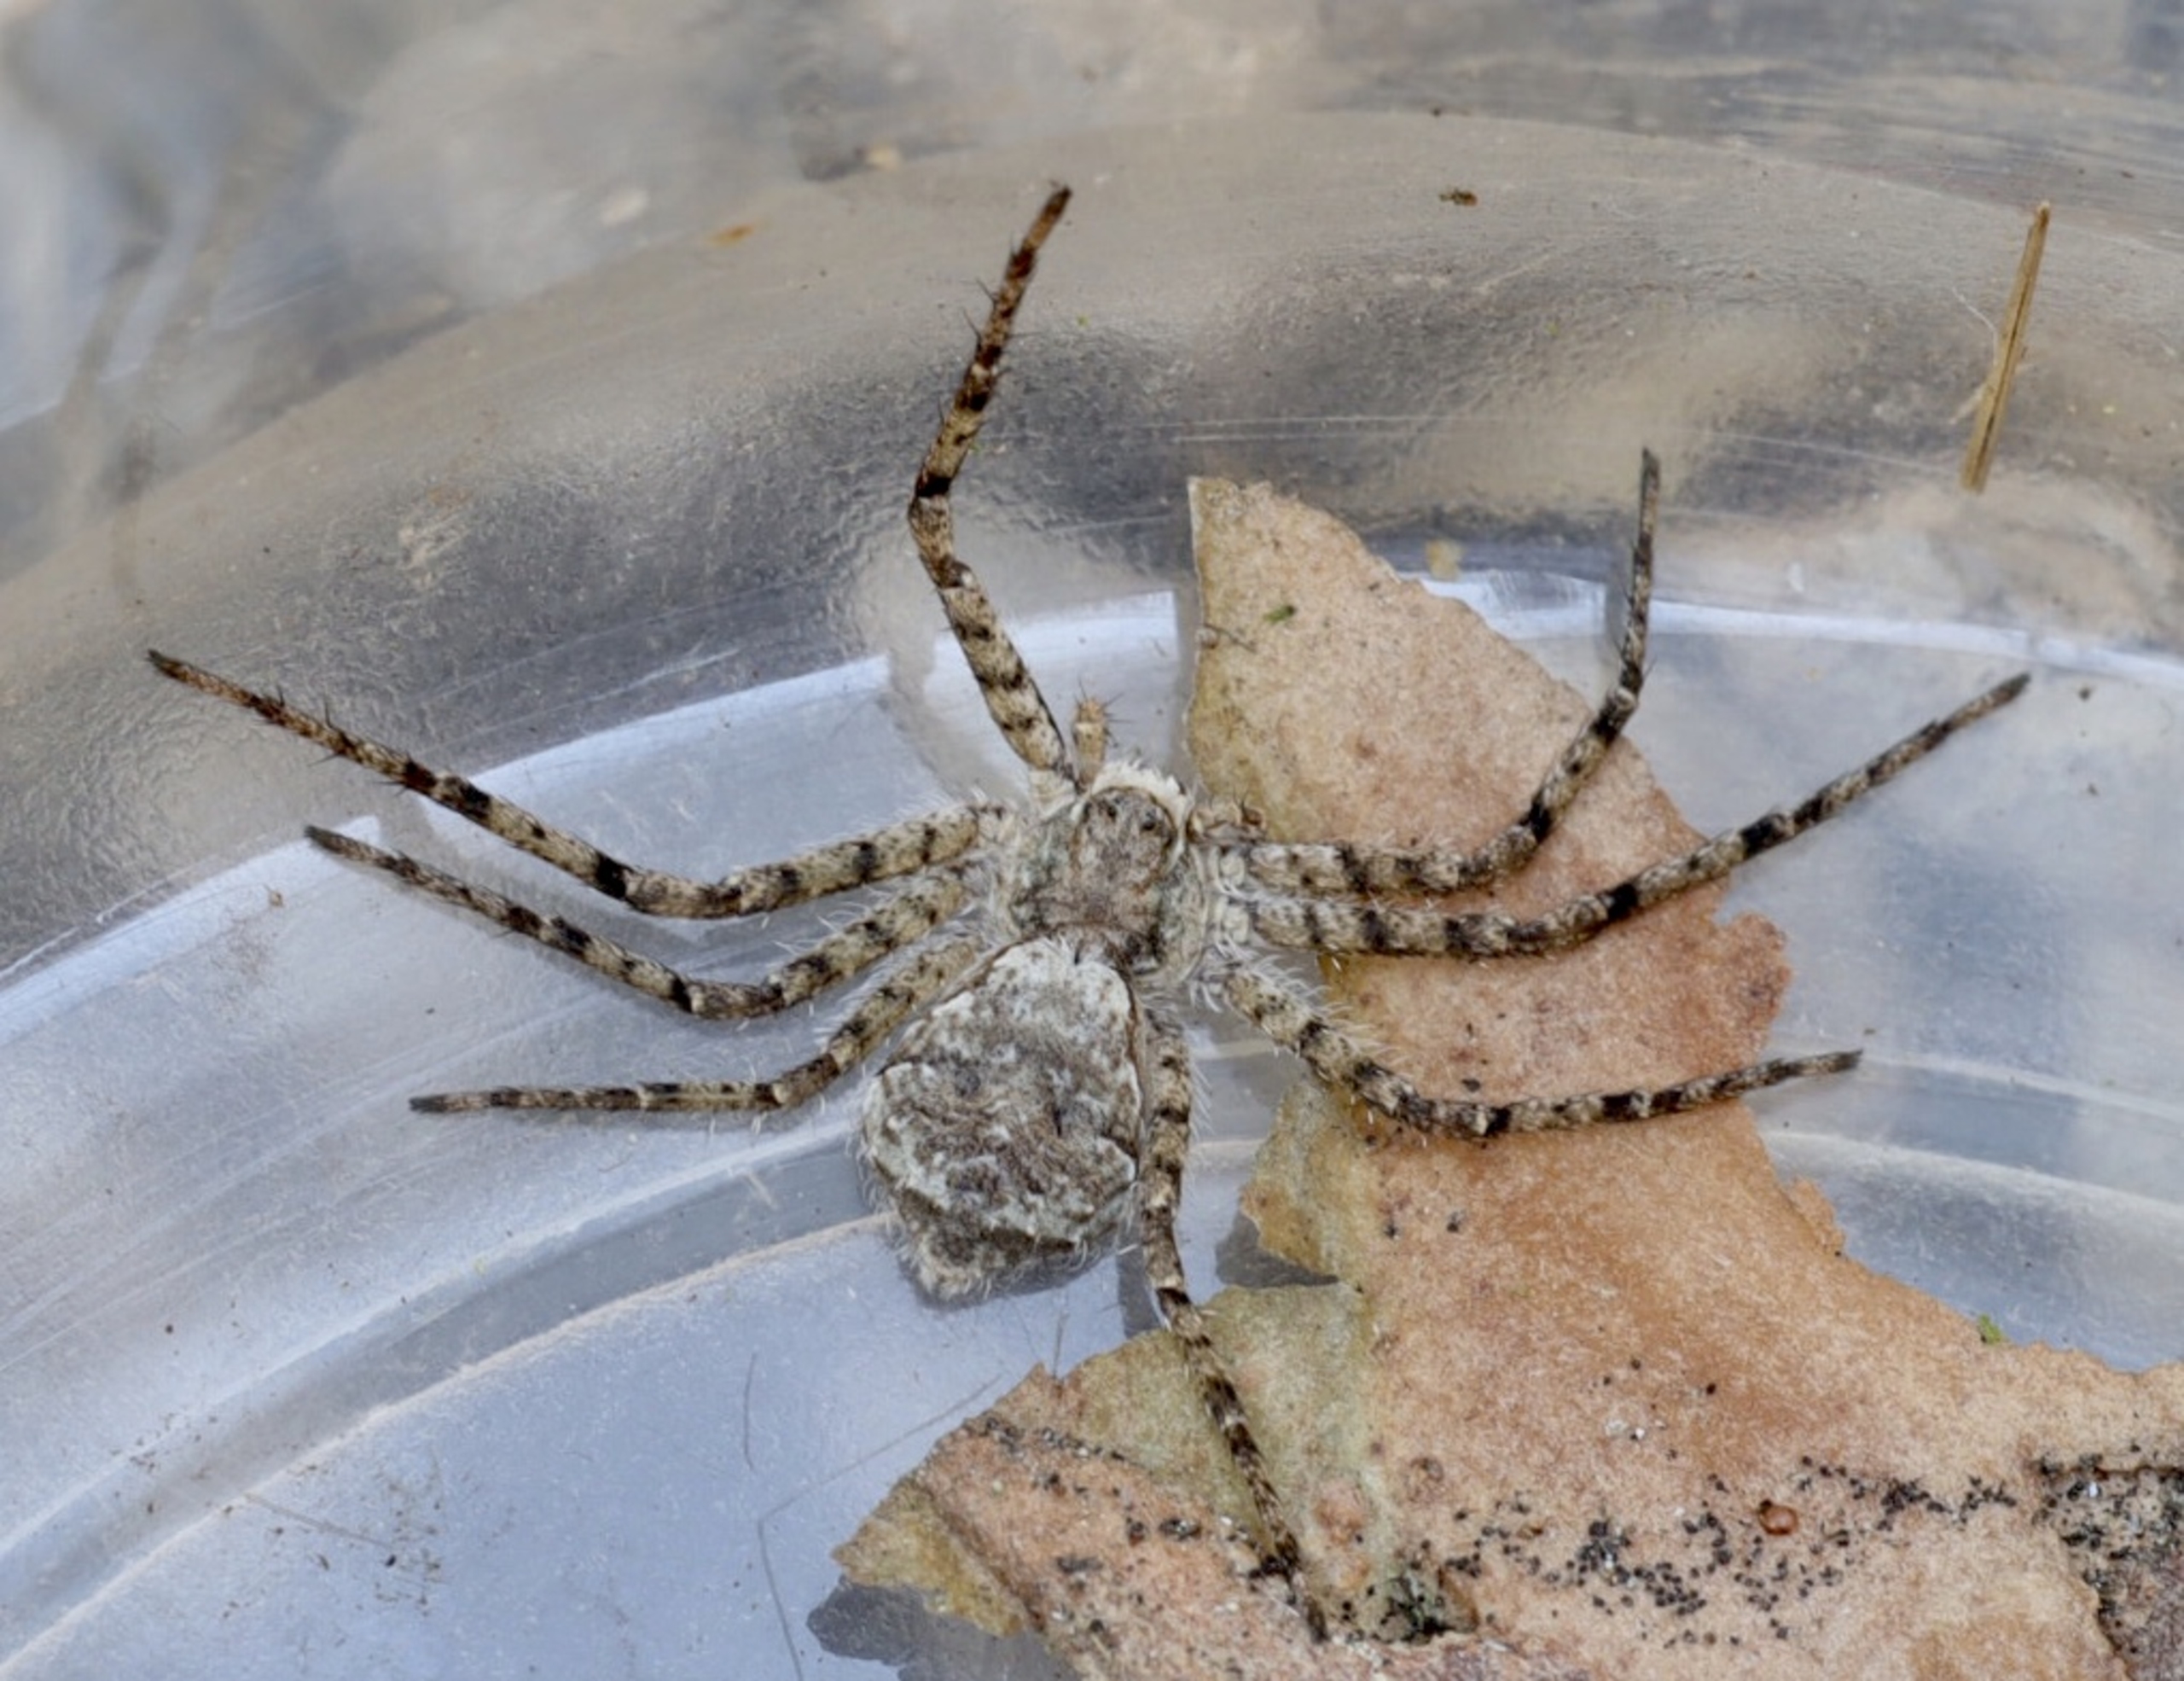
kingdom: Animalia
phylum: Arthropoda
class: Arachnida
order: Araneae
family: Philodromidae
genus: Philodromus
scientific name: Philodromus margaritatus
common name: Dødningehoved-edderkop
